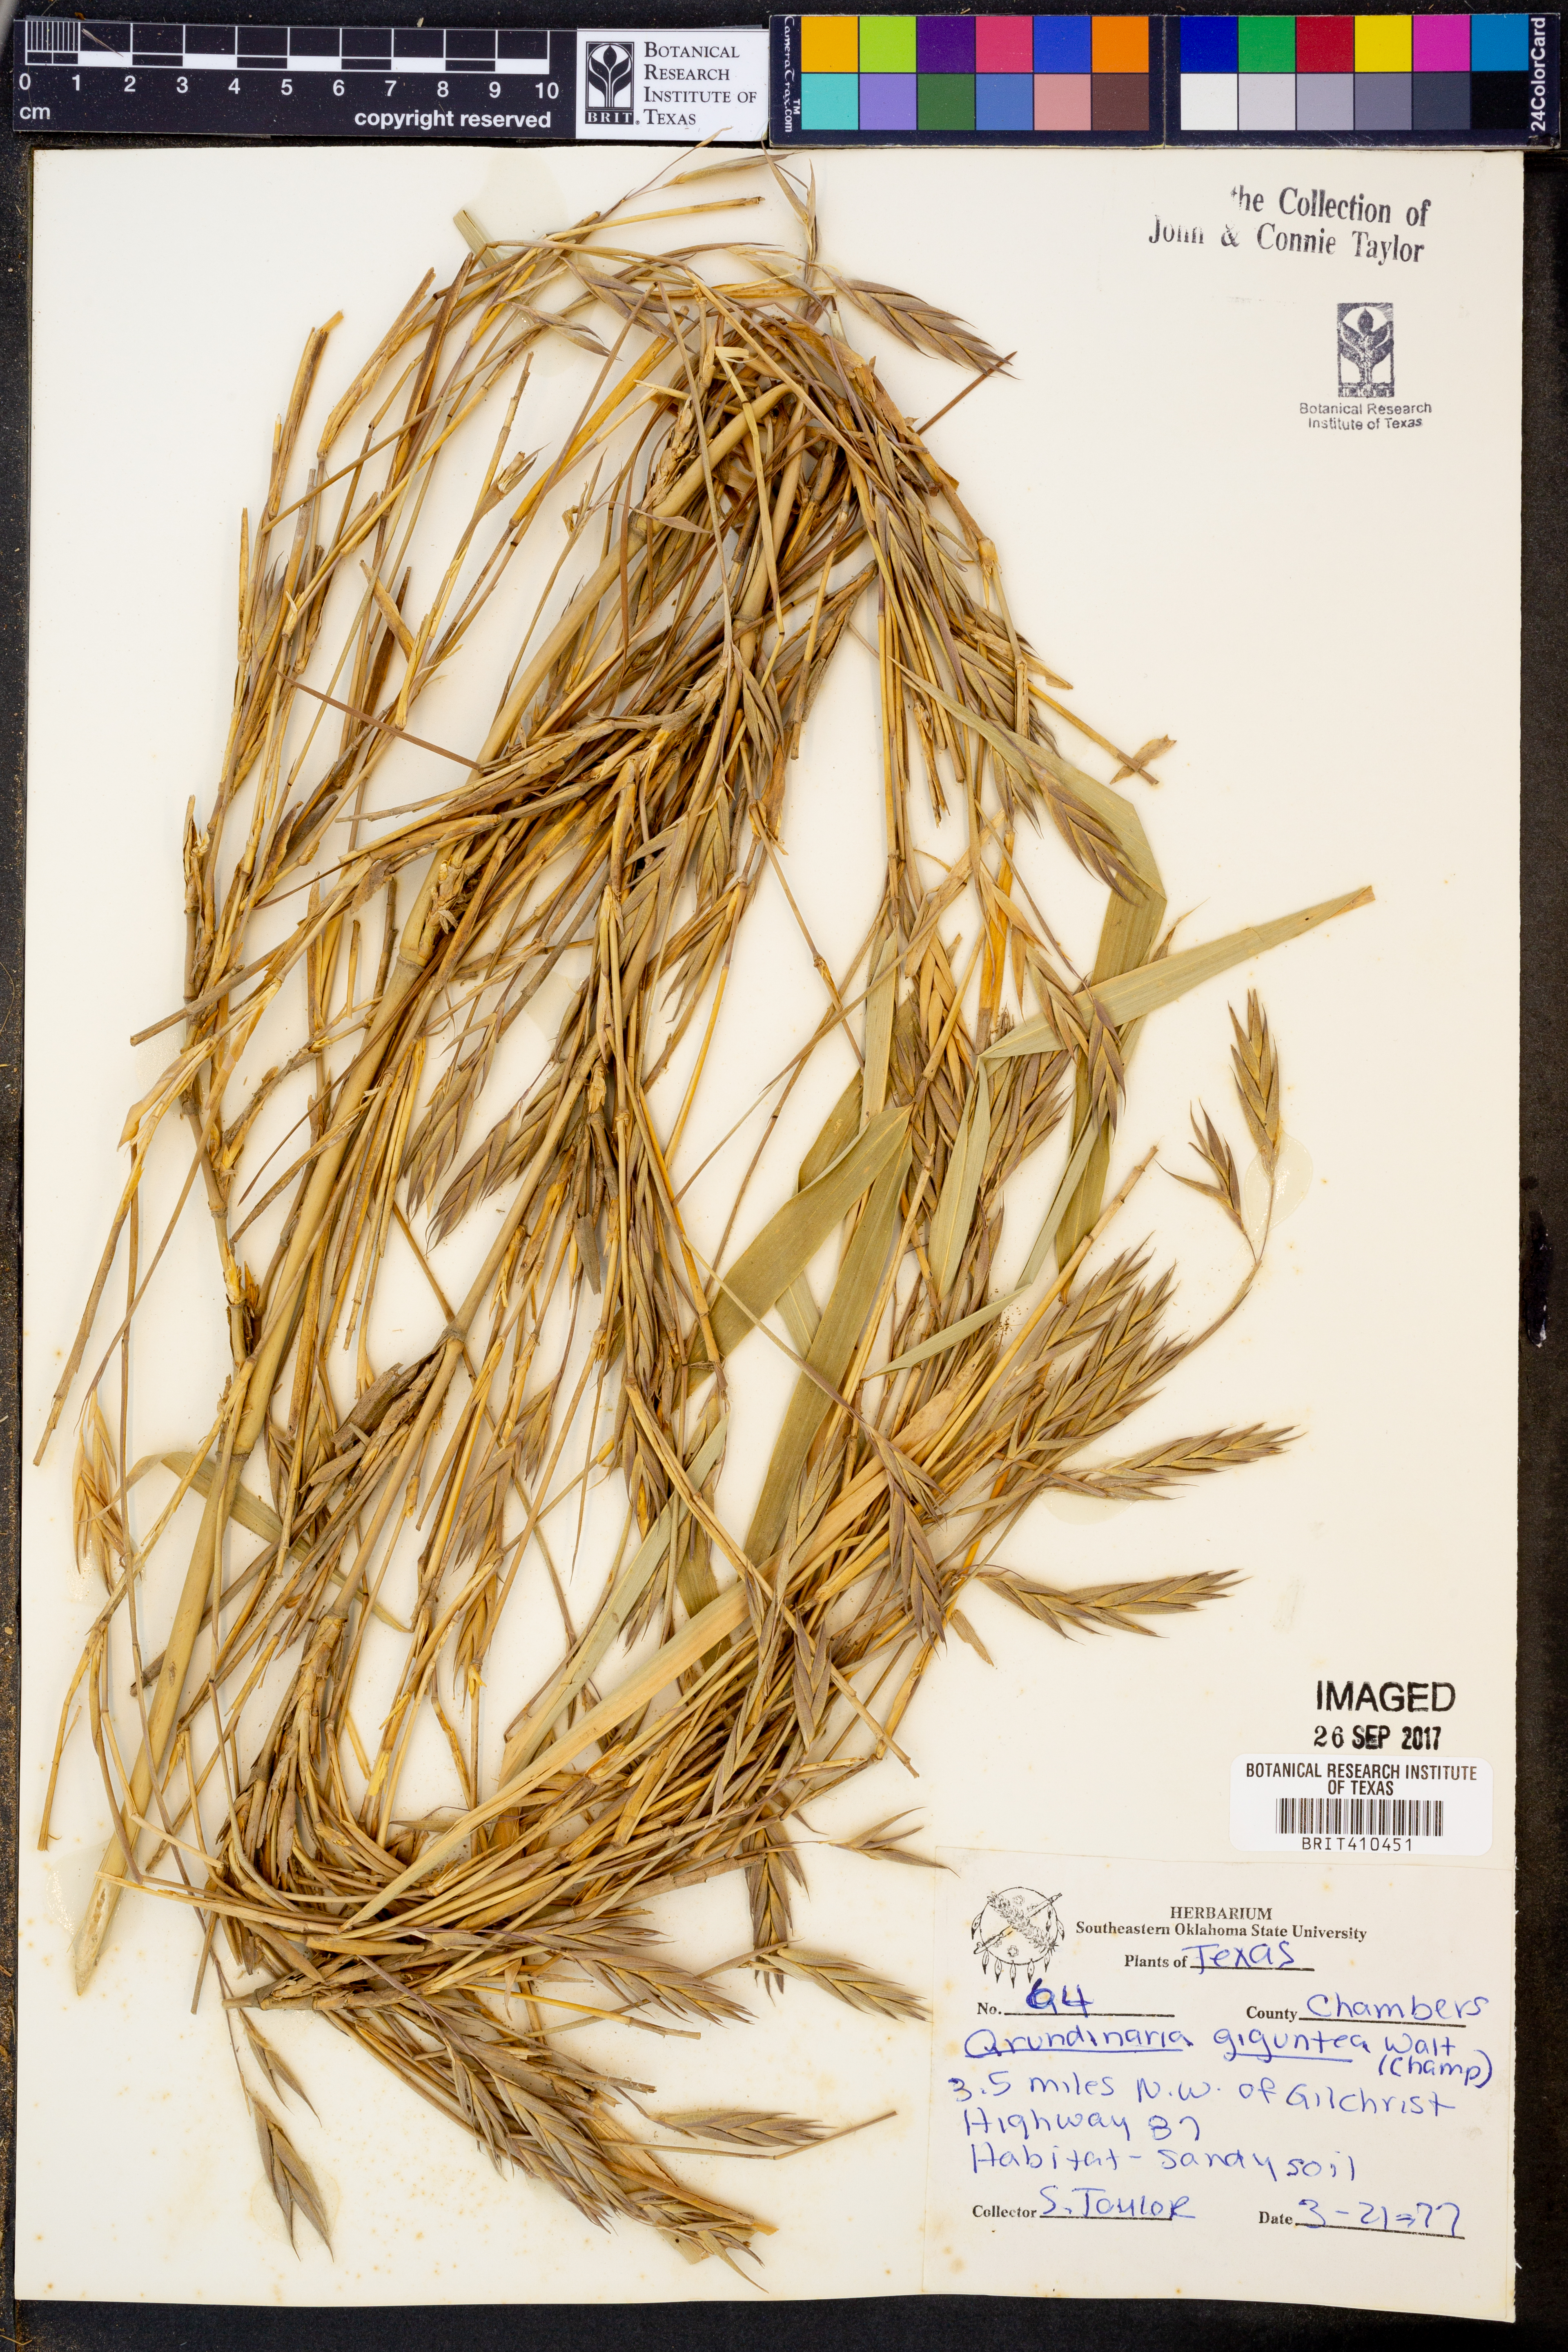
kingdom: Plantae
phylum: Tracheophyta
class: Liliopsida
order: Poales
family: Poaceae
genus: Arundinaria
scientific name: Arundinaria gigantea
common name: Giant cane
